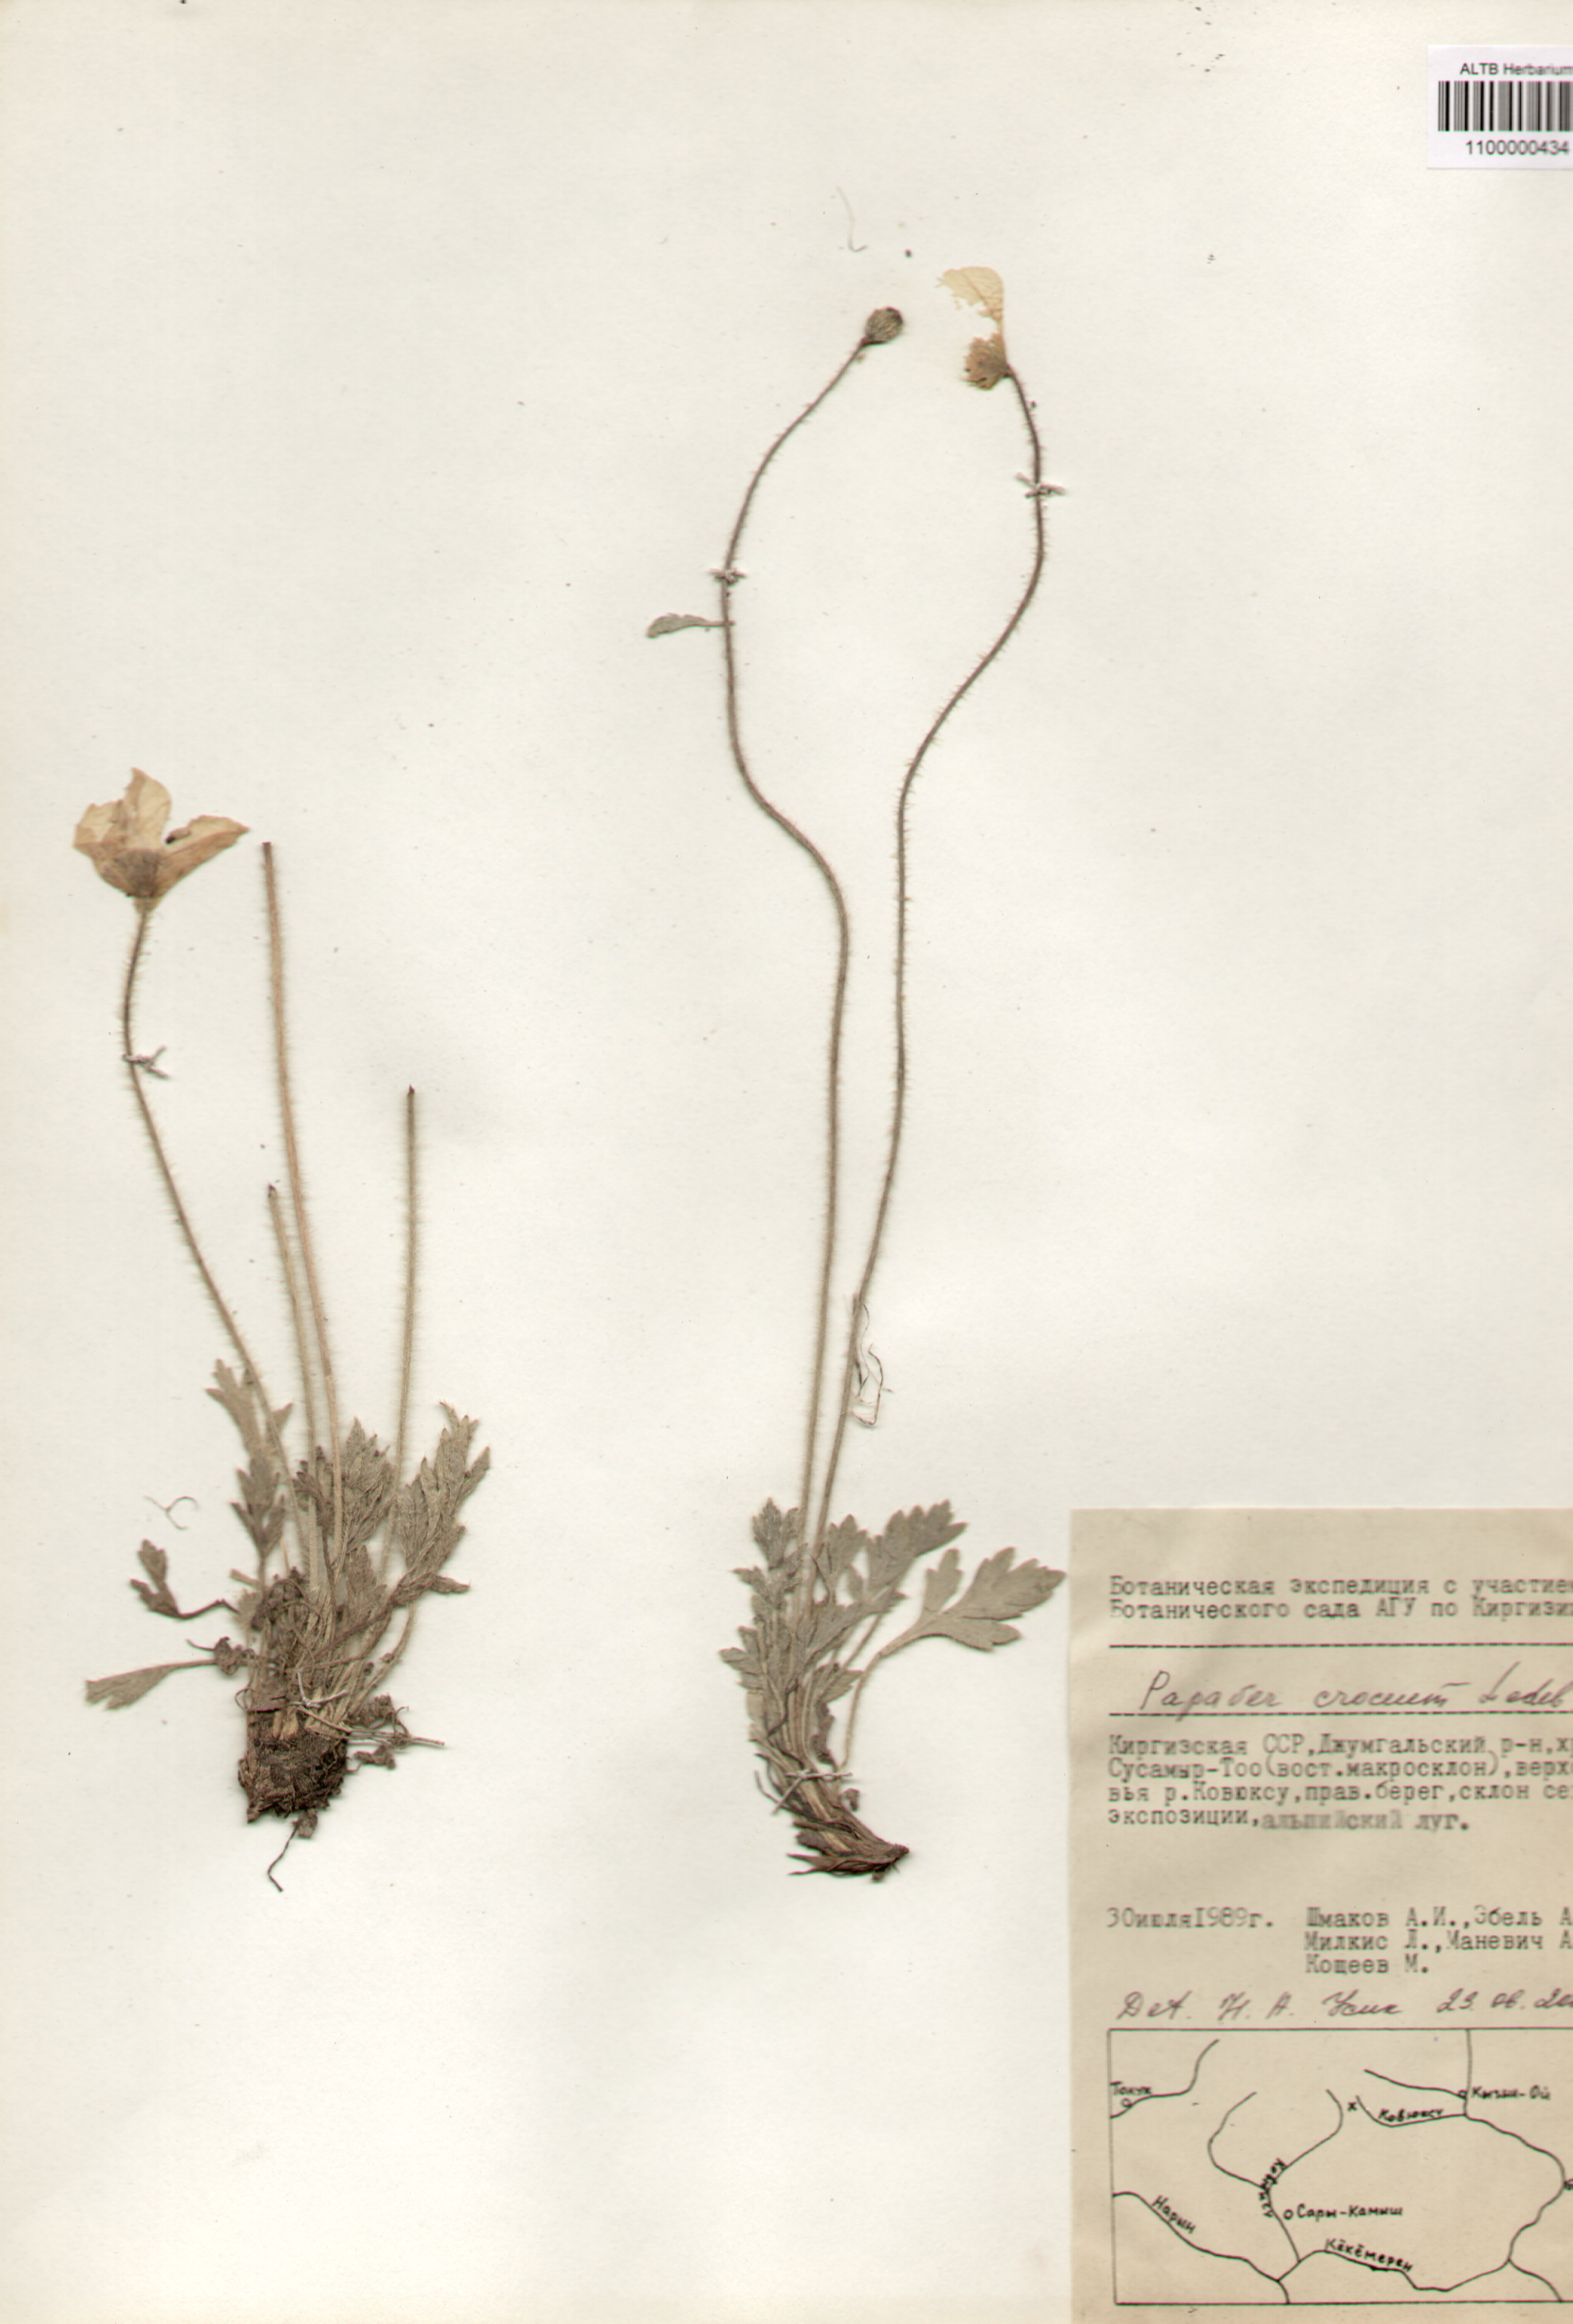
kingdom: Plantae
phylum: Tracheophyta
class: Magnoliopsida
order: Ranunculales
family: Papaveraceae
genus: Papaver
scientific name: Papaver croceum
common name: Siberian poppy
